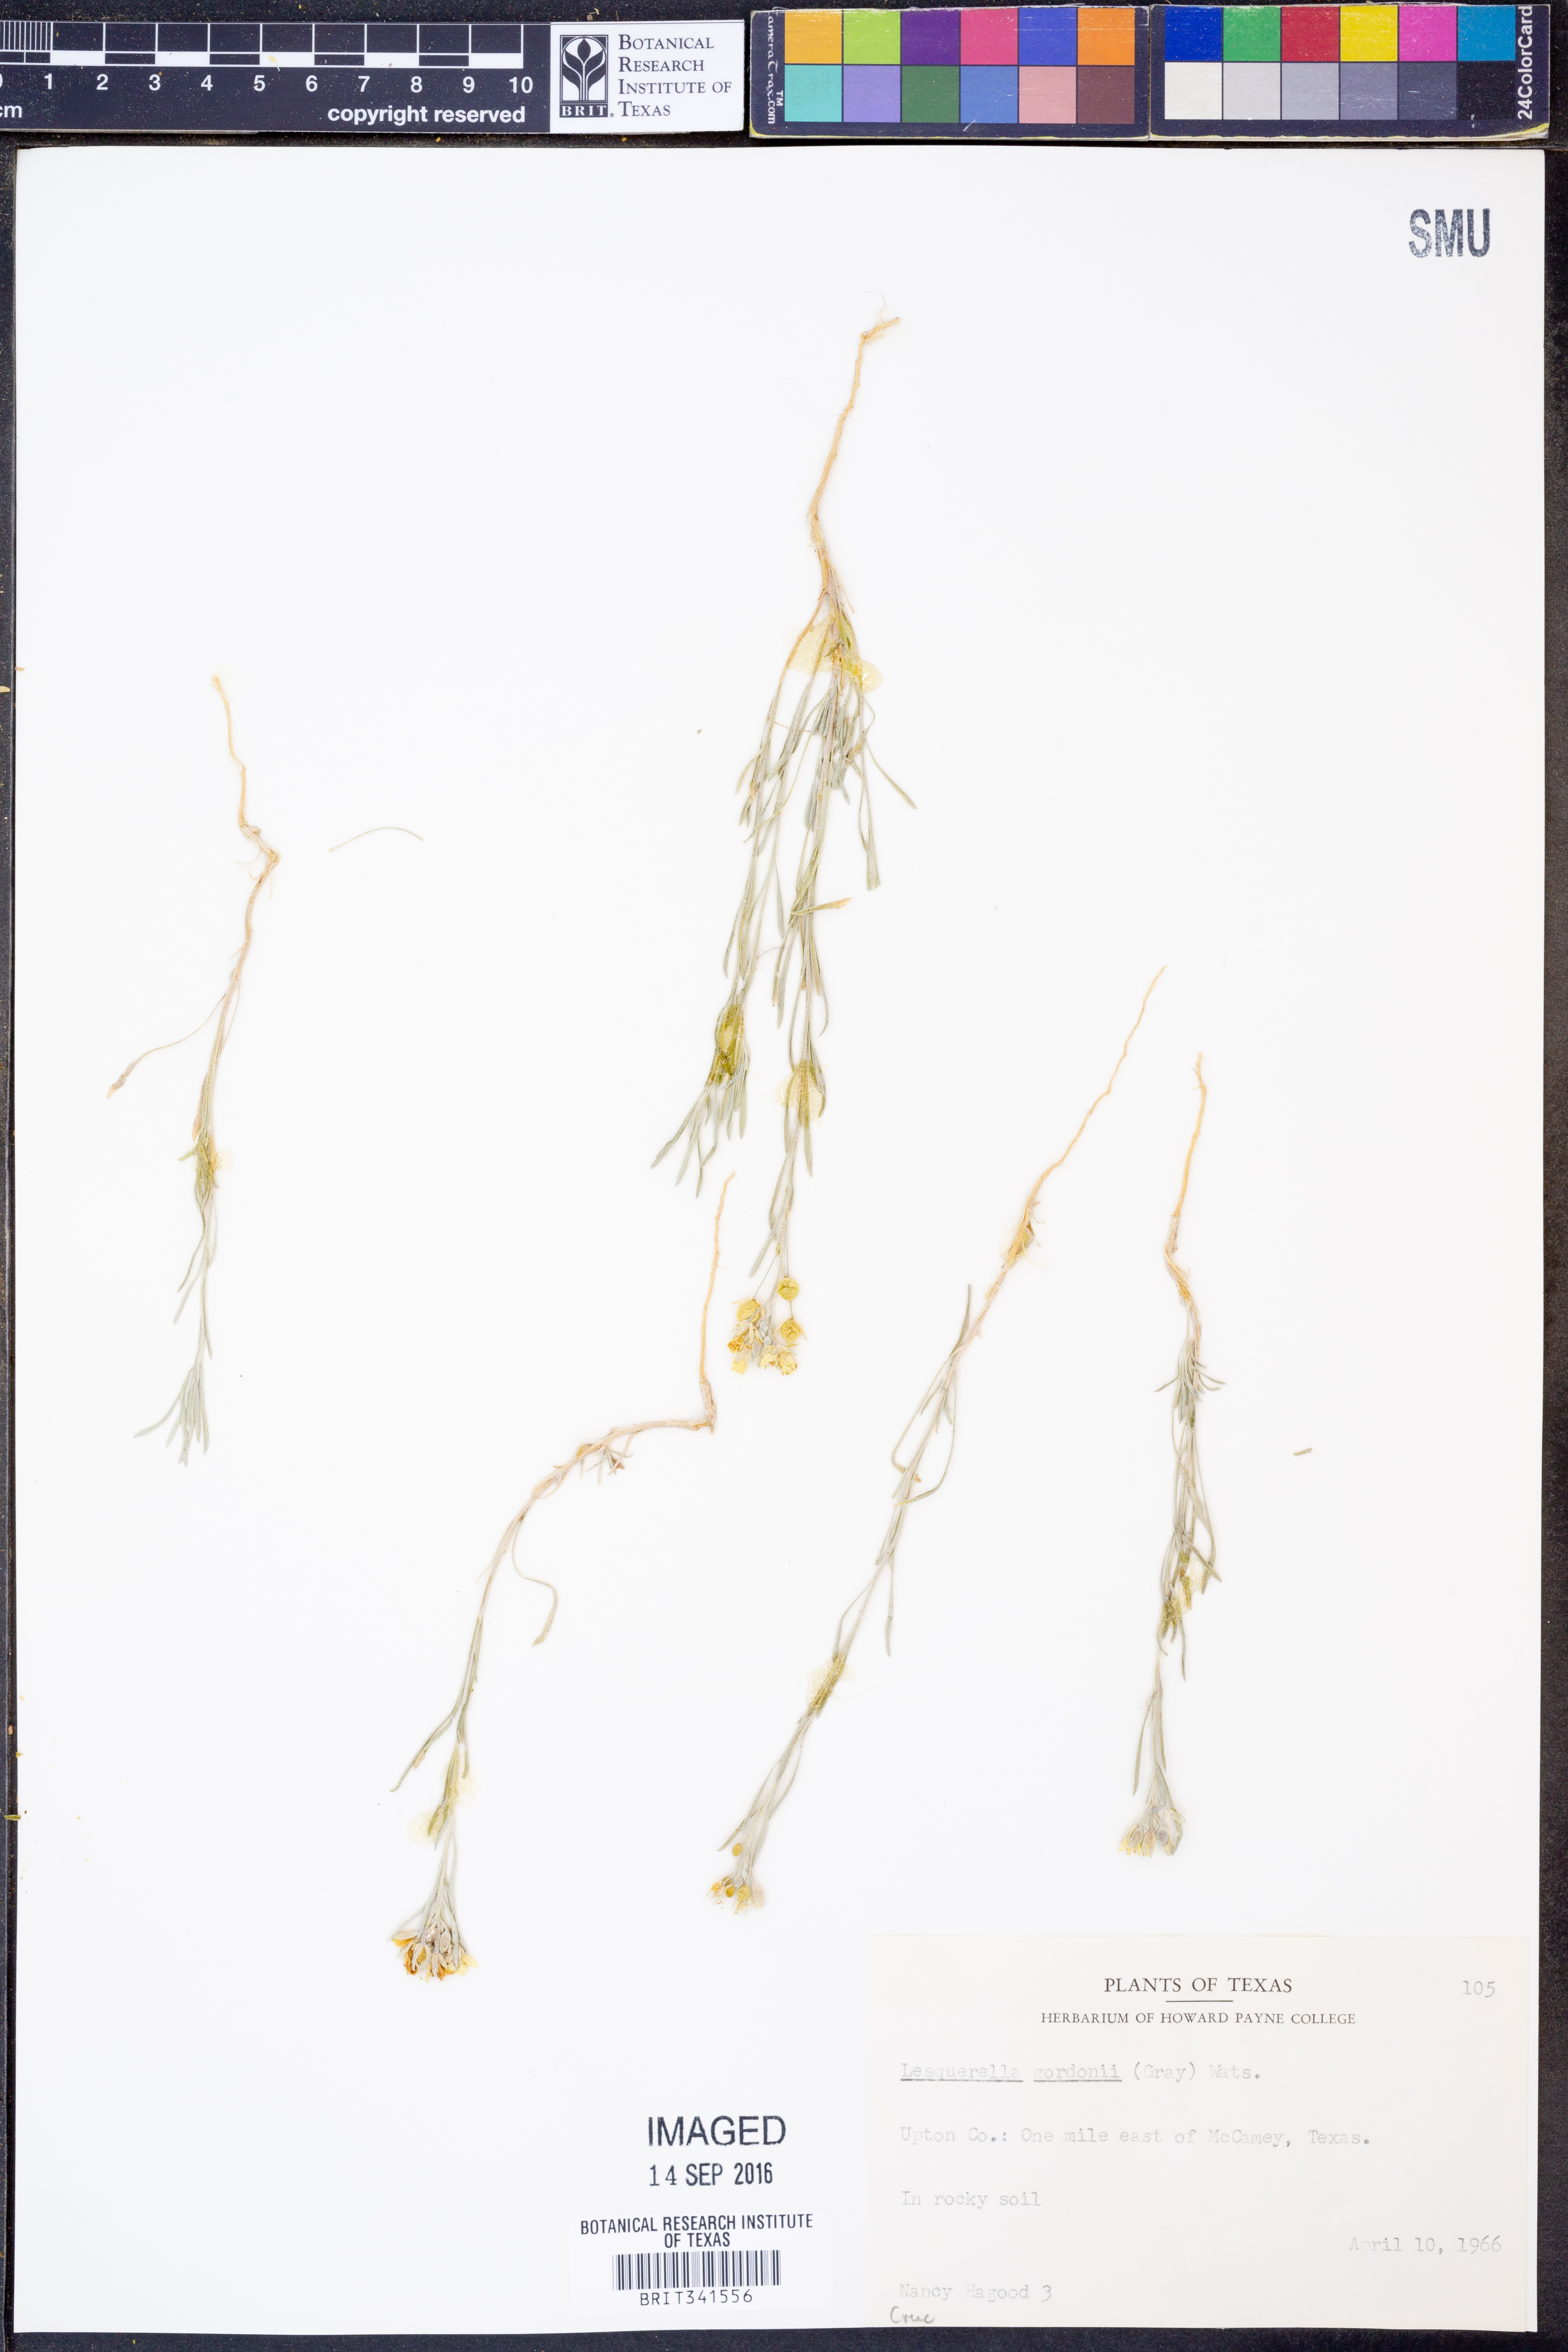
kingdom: Plantae
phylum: Tracheophyta
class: Magnoliopsida
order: Brassicales
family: Brassicaceae
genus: Physaria
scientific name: Physaria gordonii
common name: Gordon's bladderpod
